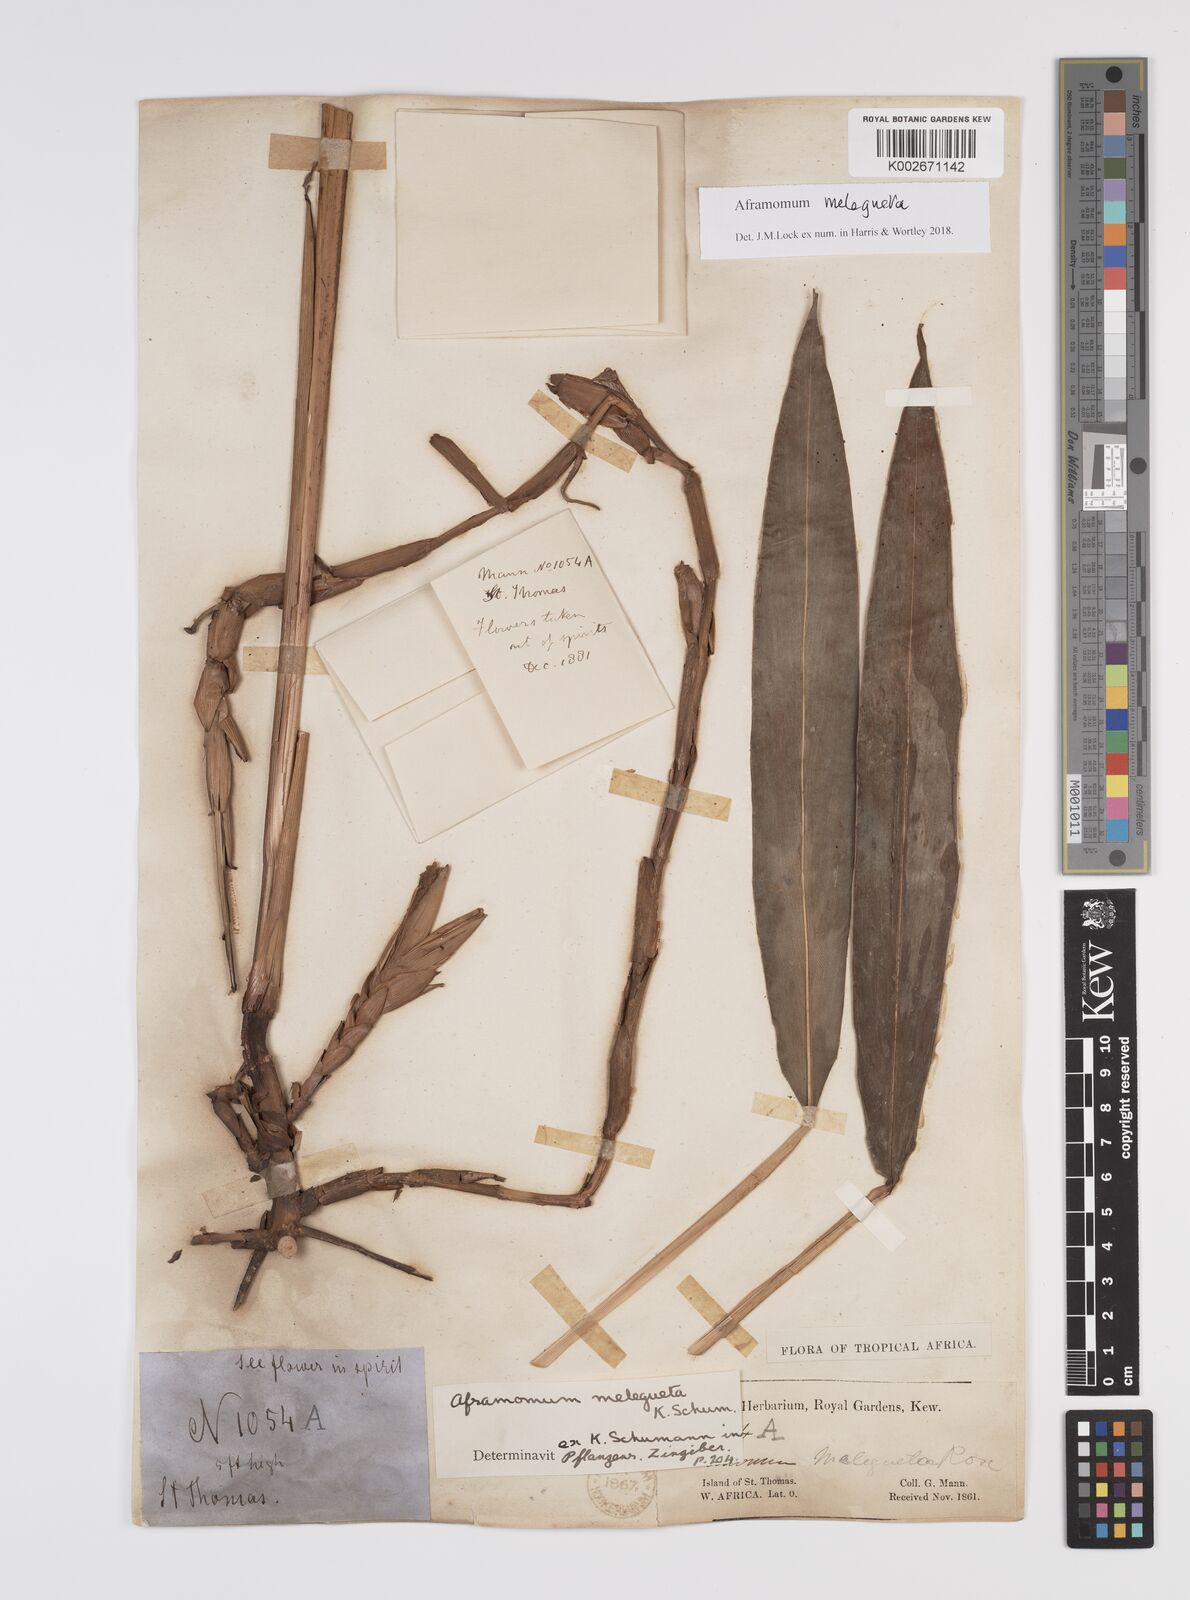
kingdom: Plantae
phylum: Tracheophyta
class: Liliopsida
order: Zingiberales
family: Zingiberaceae
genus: Aframomum
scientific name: Aframomum melegueta
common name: Grains of paradise
